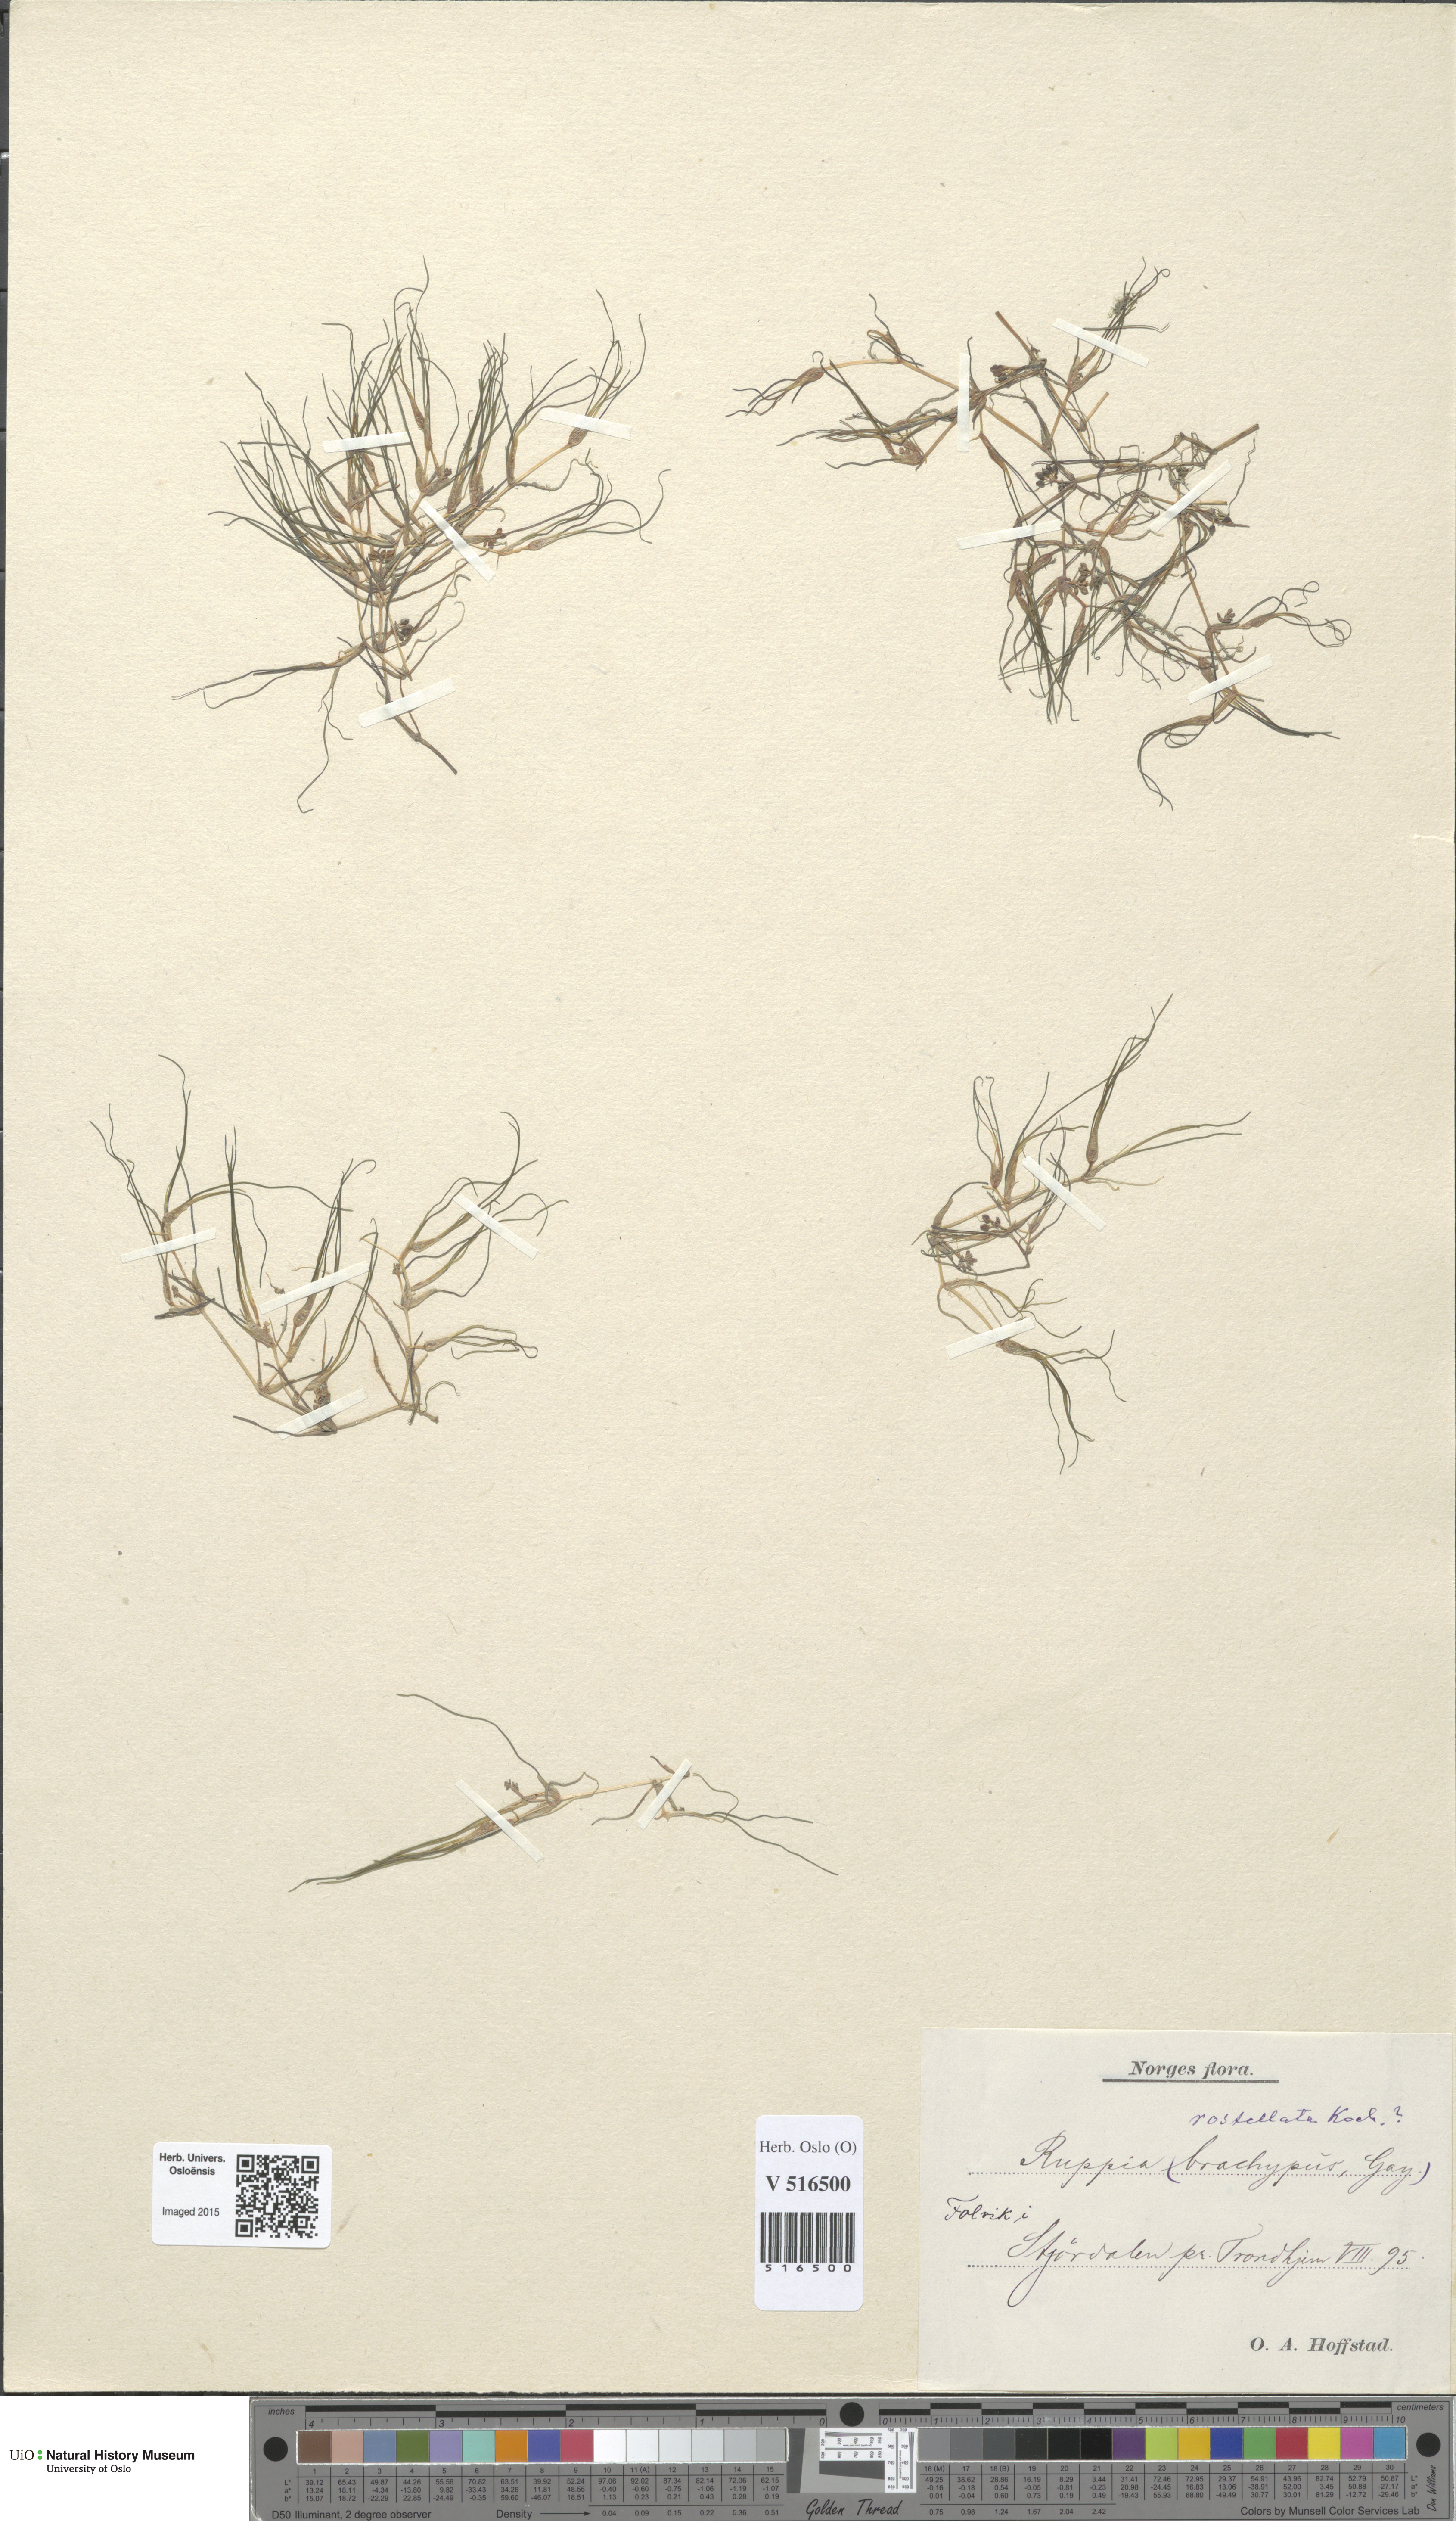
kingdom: Plantae
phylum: Tracheophyta
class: Liliopsida
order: Alismatales
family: Ruppiaceae
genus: Ruppia
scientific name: Ruppia maritima
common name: Beaked tasselweed
